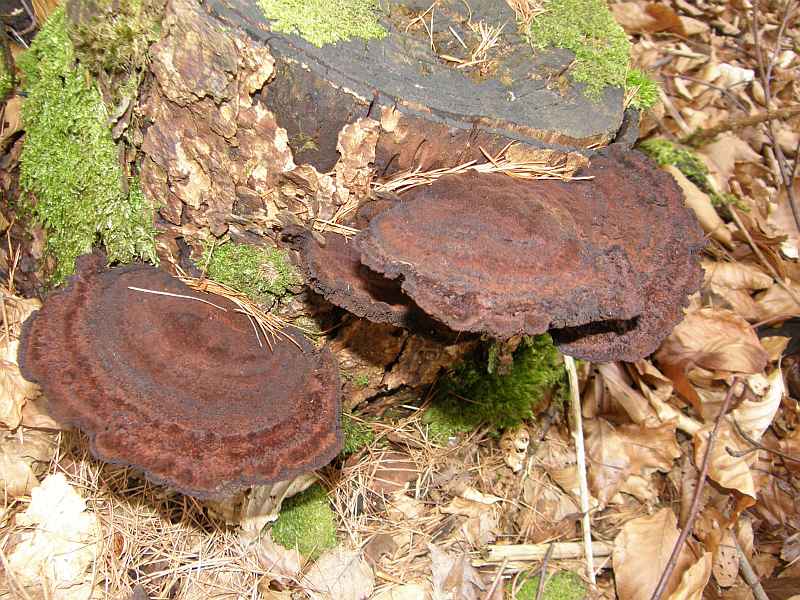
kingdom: Fungi
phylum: Basidiomycota
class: Agaricomycetes
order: Polyporales
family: Ischnodermataceae
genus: Ischnoderma
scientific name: Ischnoderma benzoinum
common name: gran-tjæreporesvamp
